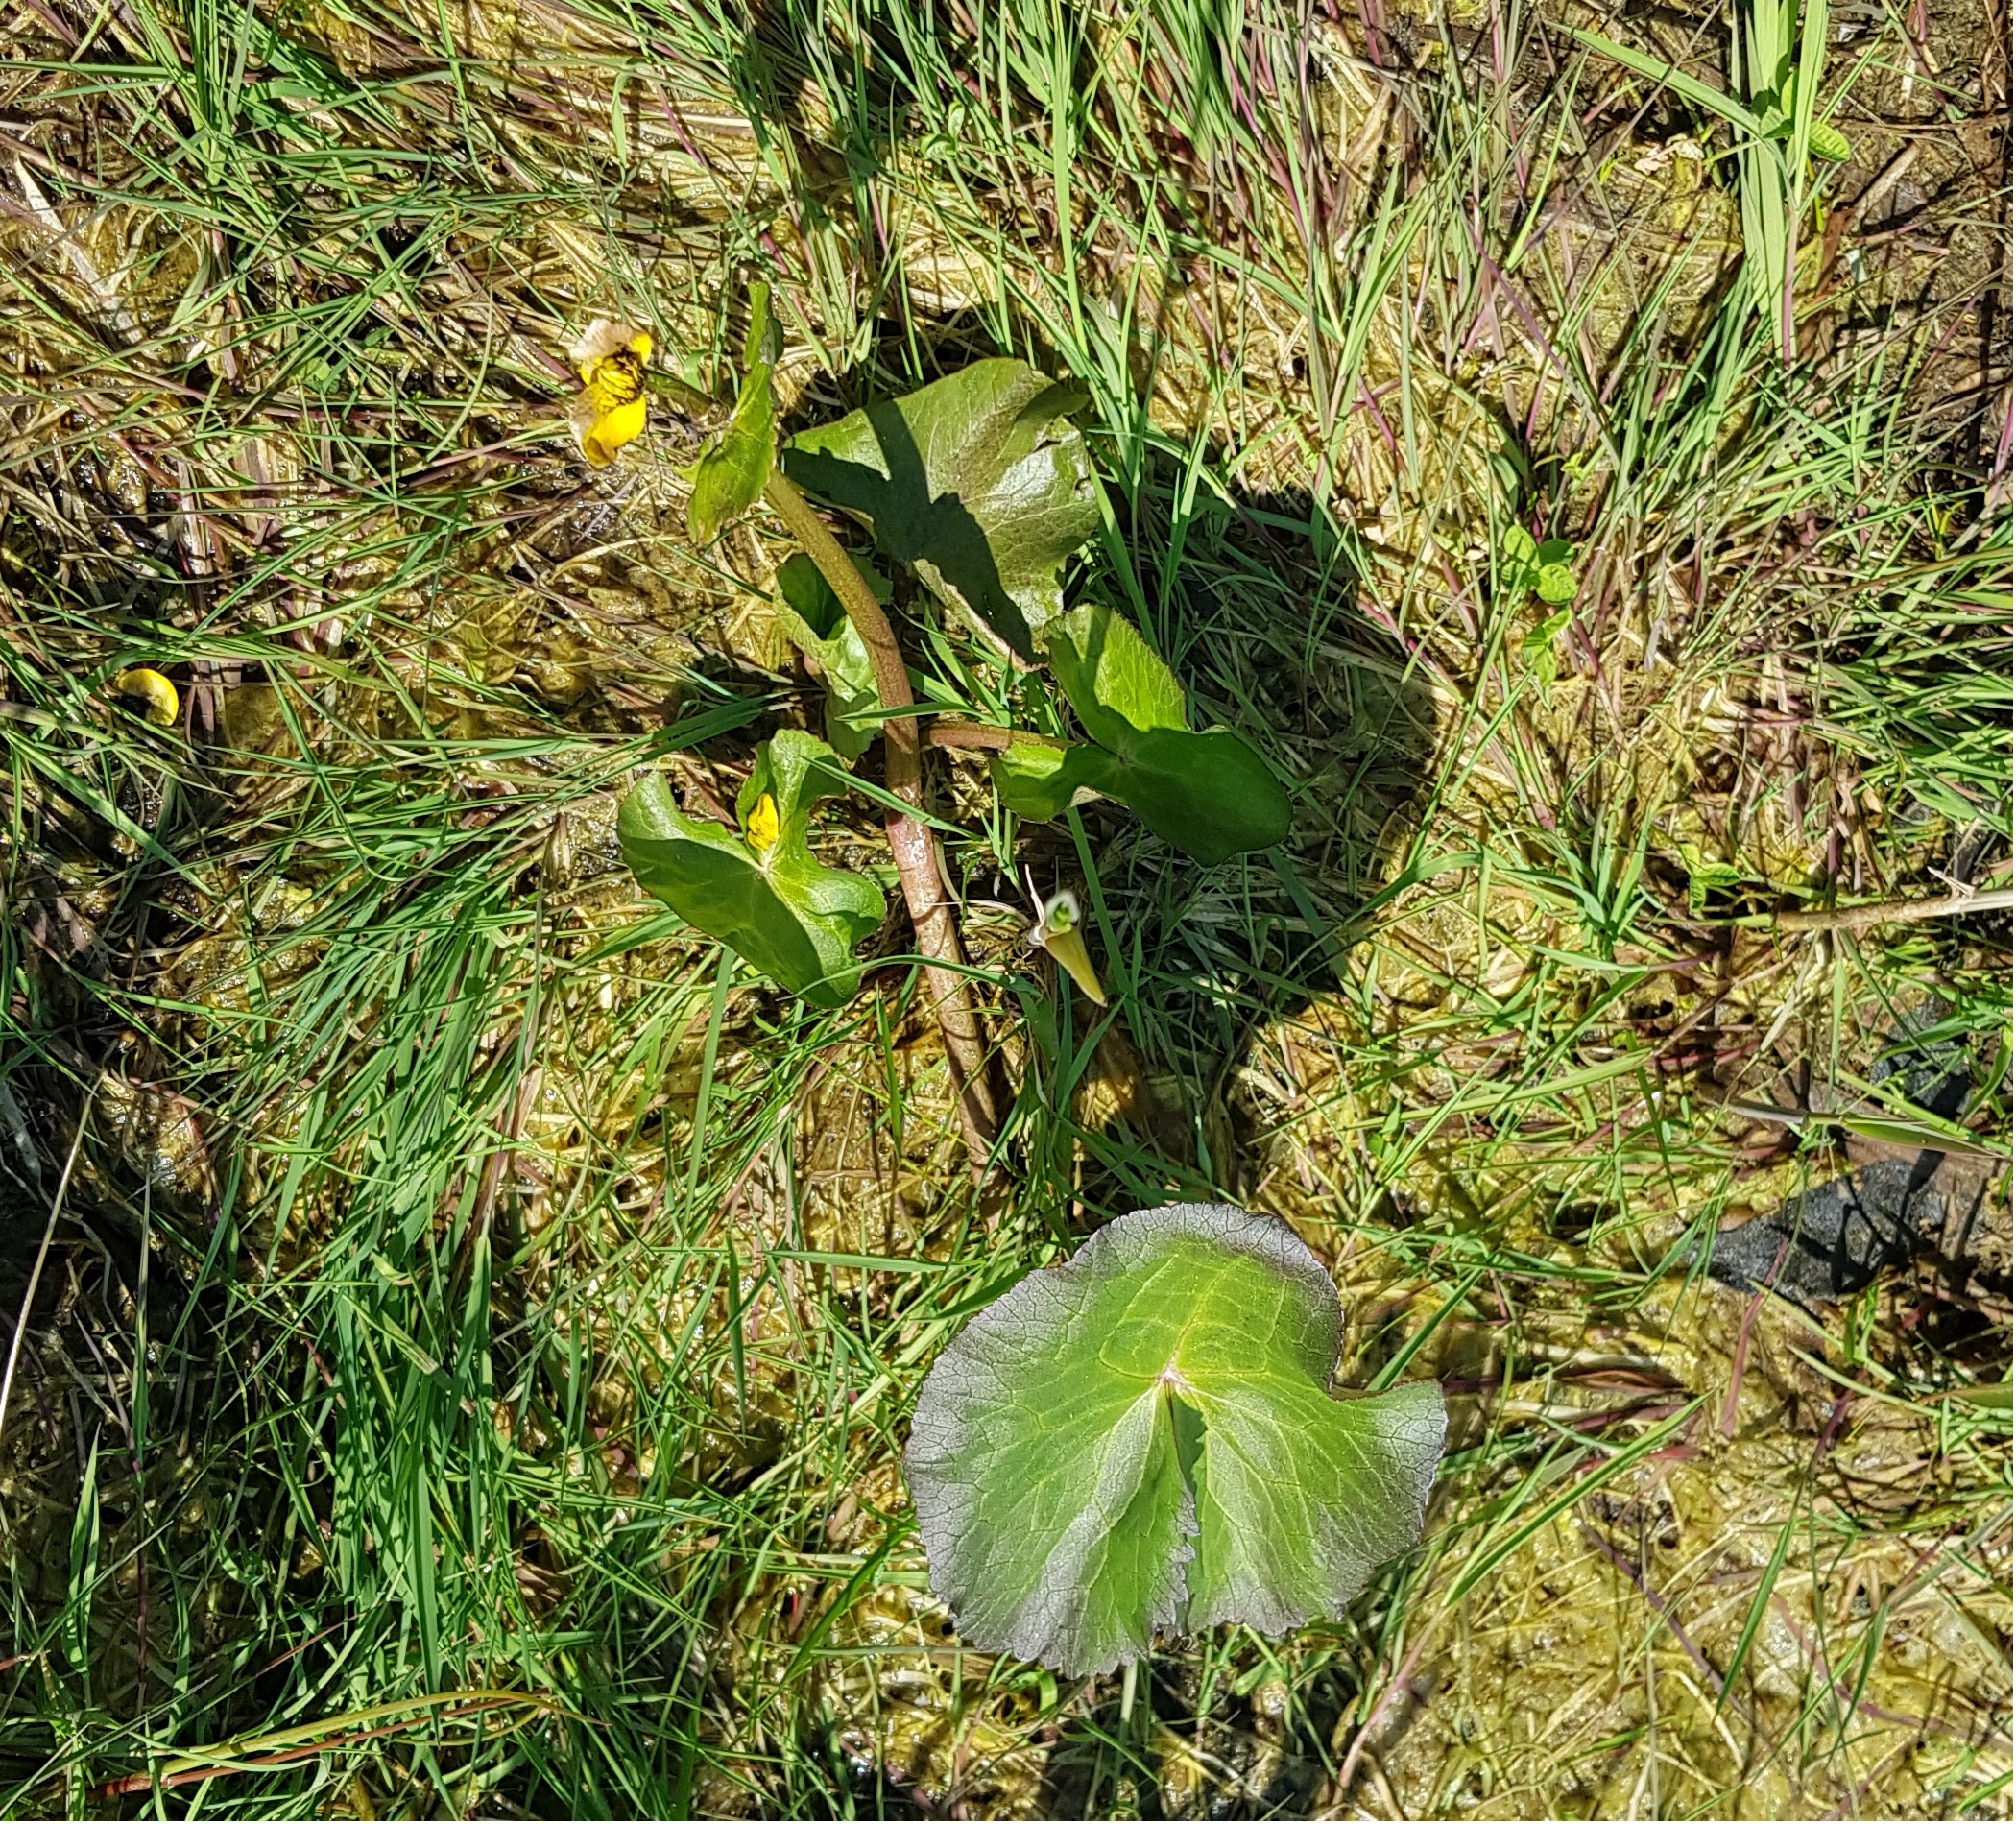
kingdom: Plantae
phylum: Tracheophyta
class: Magnoliopsida
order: Ranunculales
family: Ranunculaceae
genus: Caltha
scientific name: Caltha palustris
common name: Eng-kabbeleje
